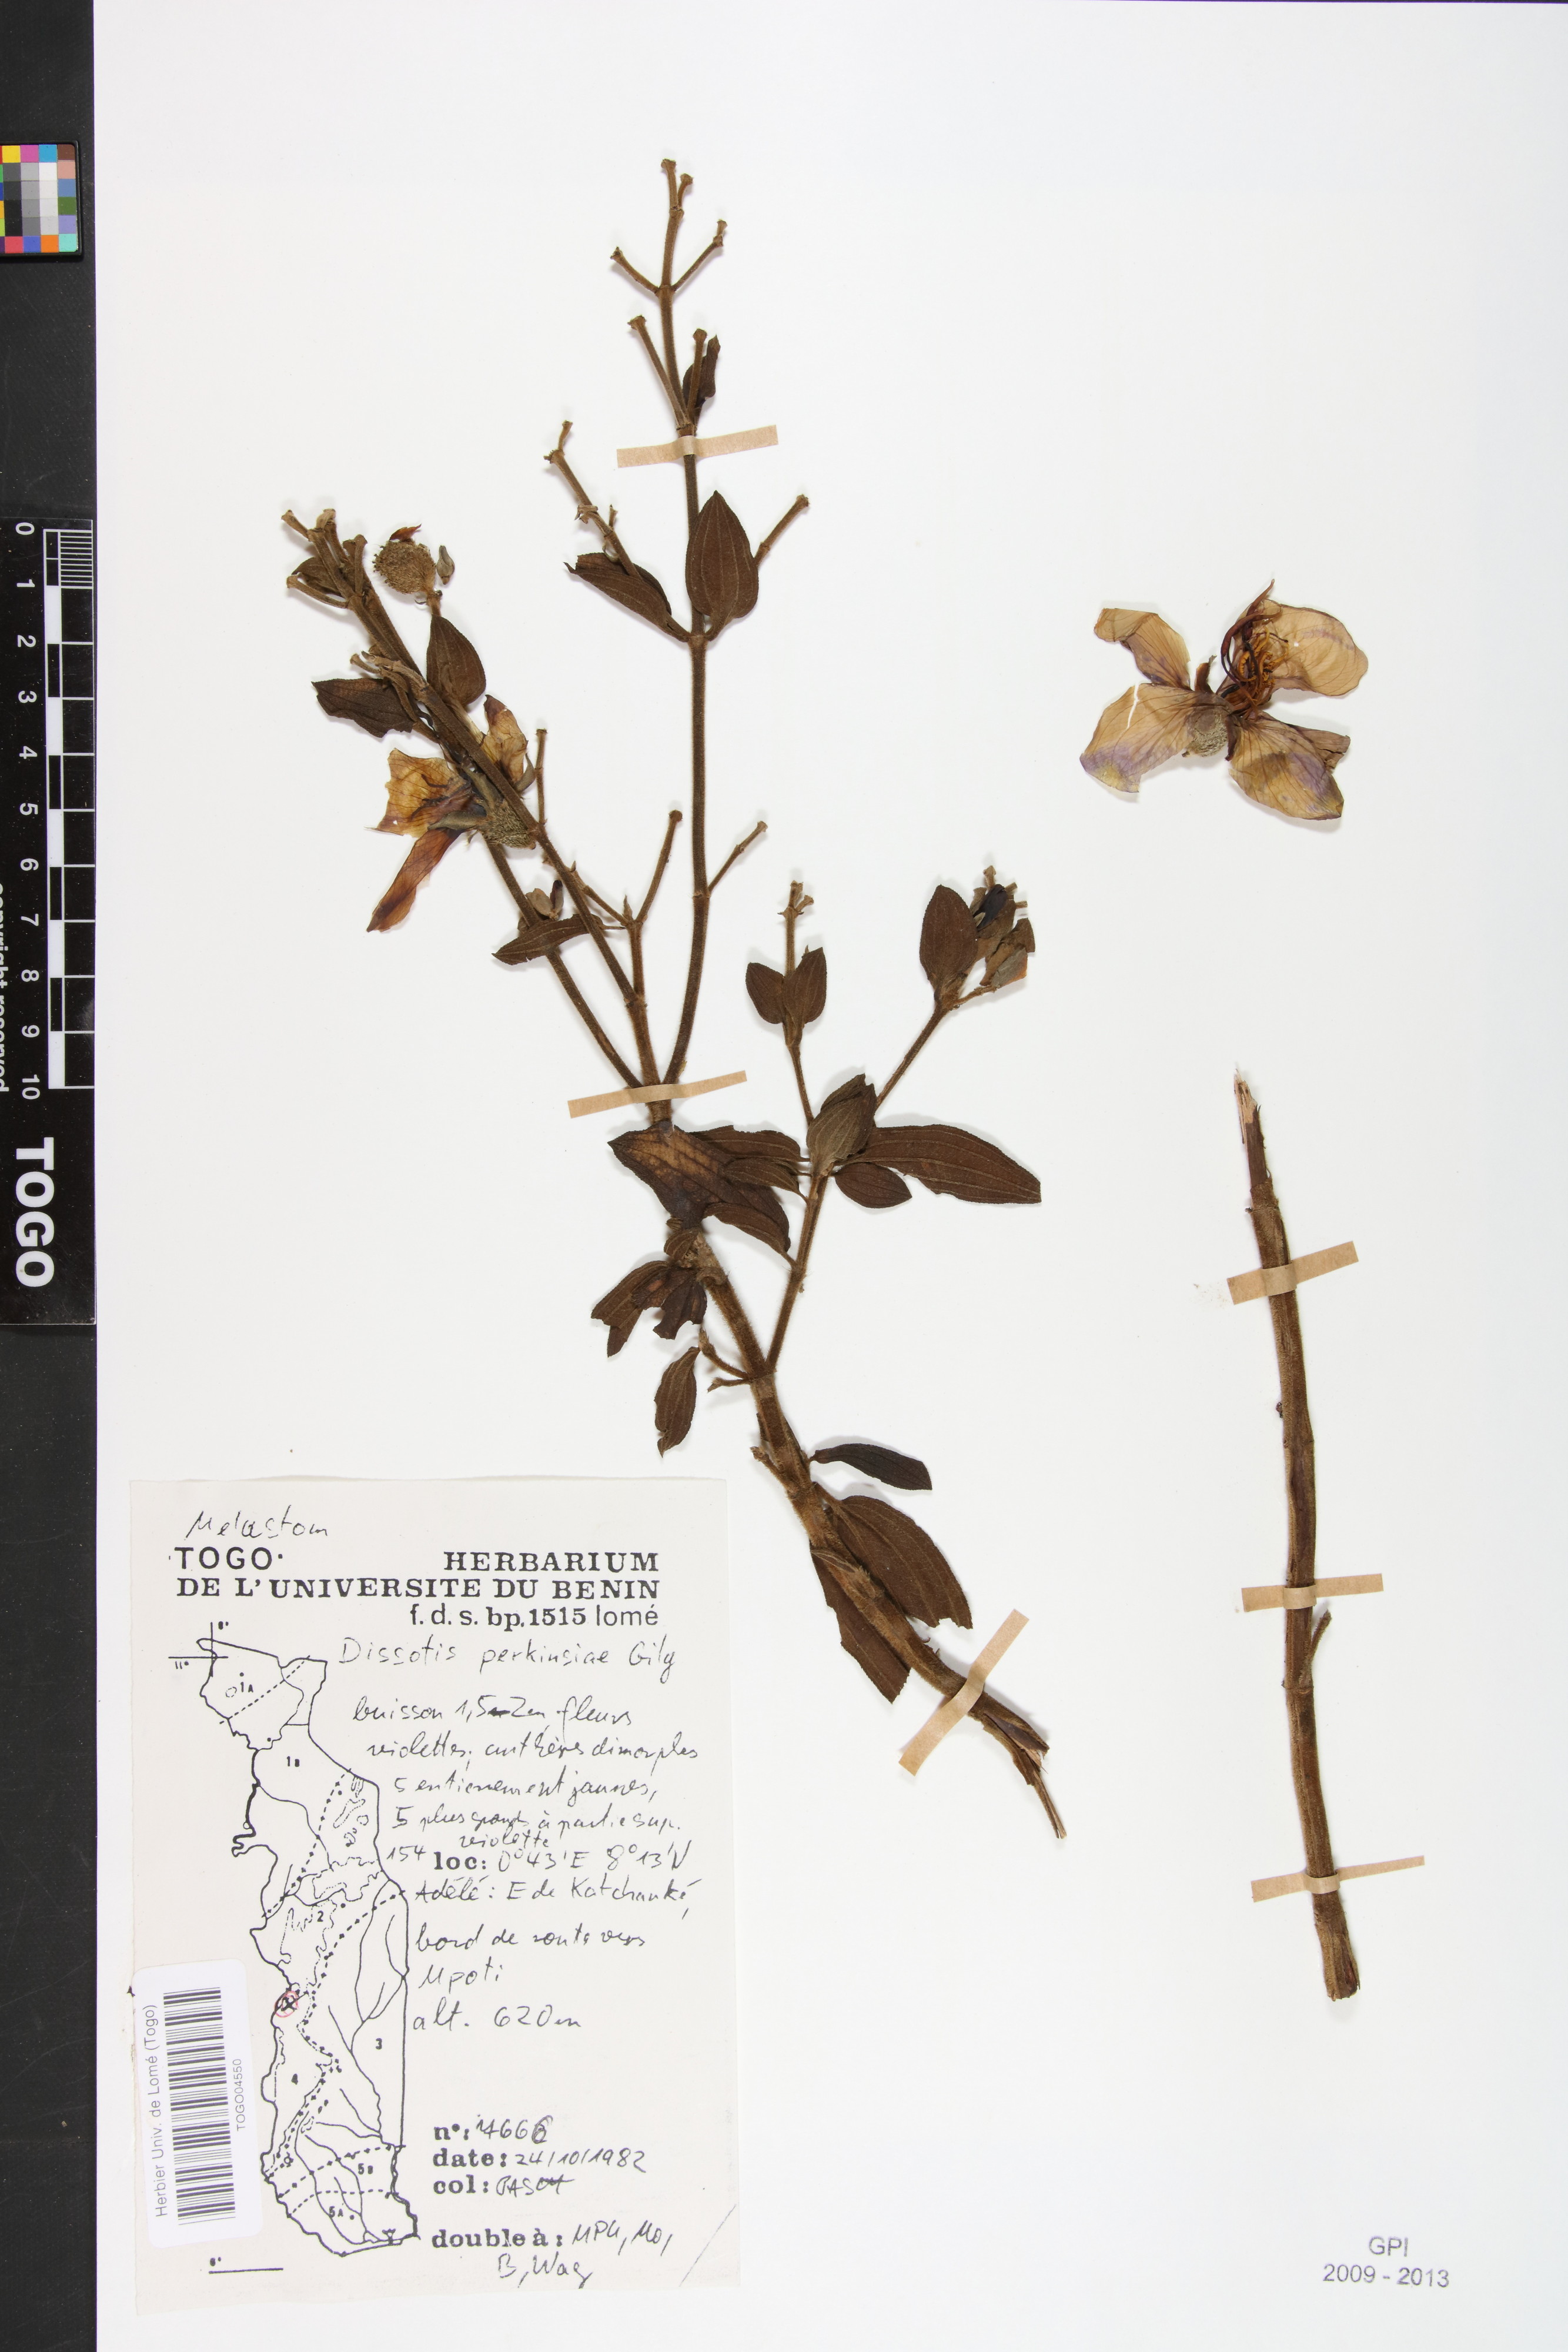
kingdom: Plantae
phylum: Tracheophyta
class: Magnoliopsida
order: Myrtales
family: Melastomataceae
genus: Feliciotis
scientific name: Feliciotis perkinsiae
